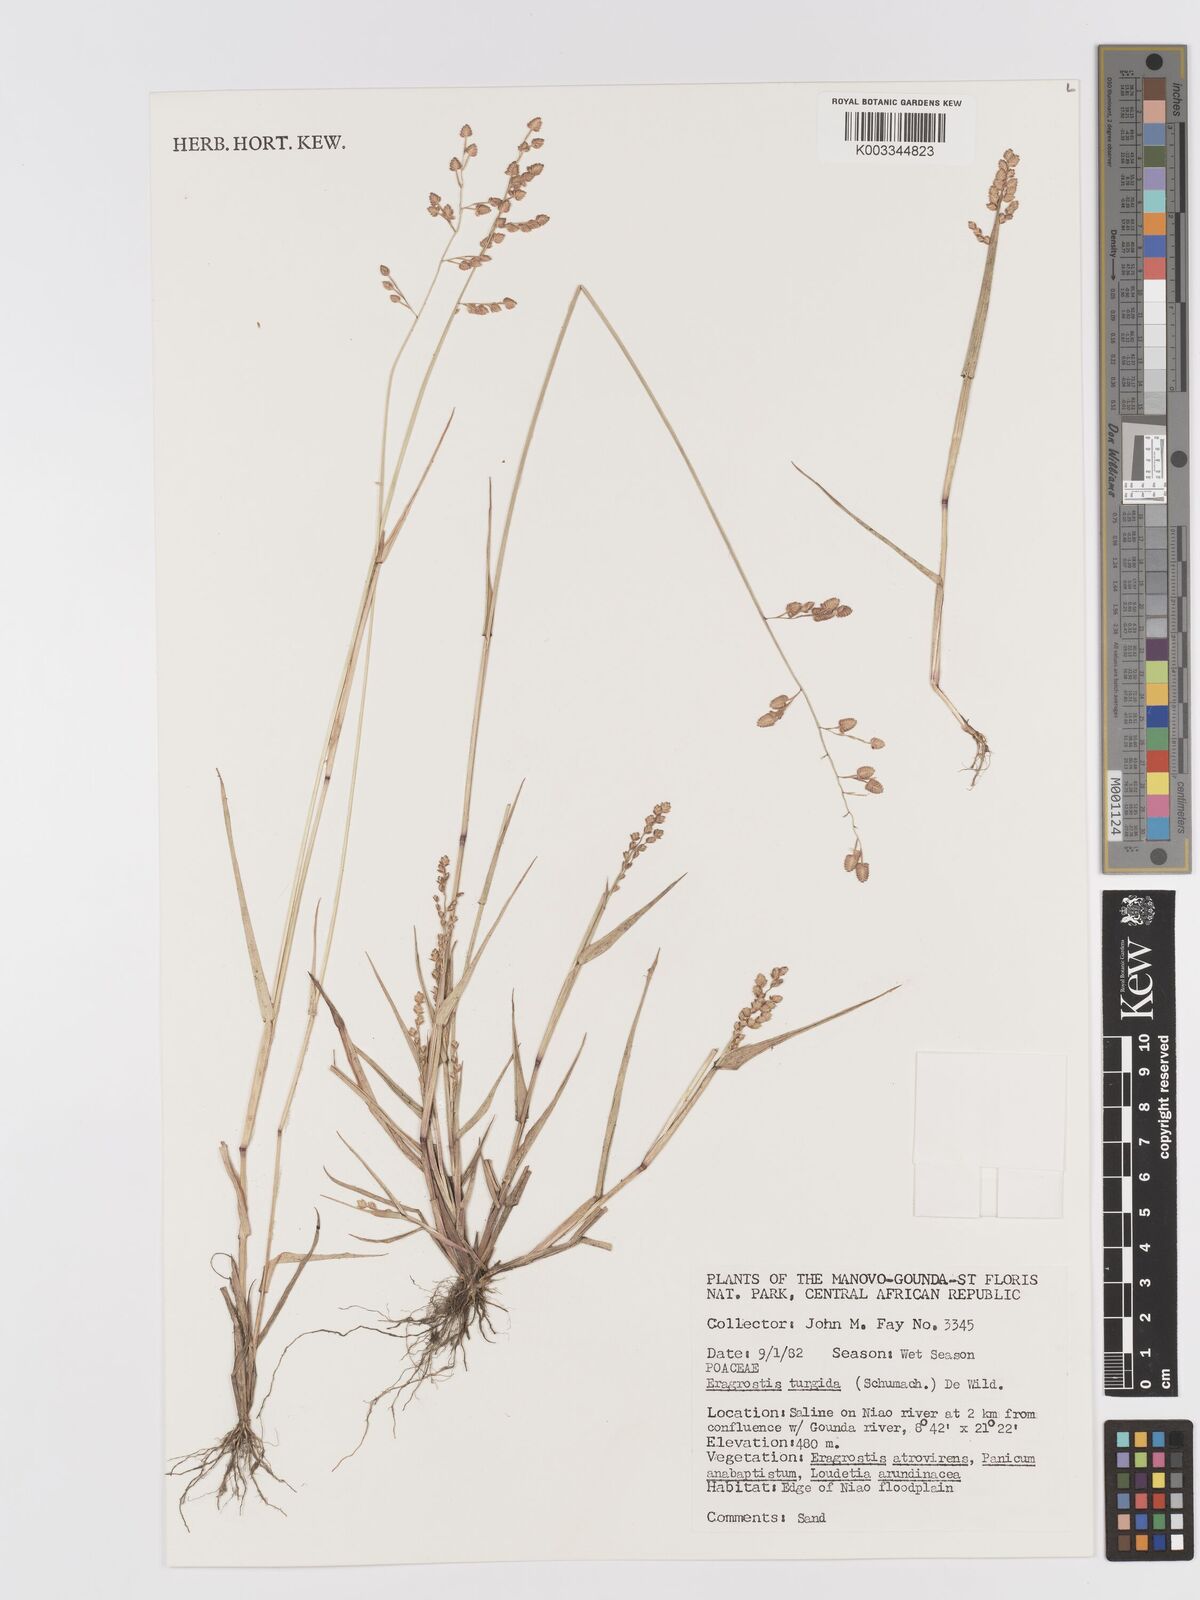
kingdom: Plantae
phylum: Tracheophyta
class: Liliopsida
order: Poales
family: Poaceae
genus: Eragrostis
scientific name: Eragrostis turgida
